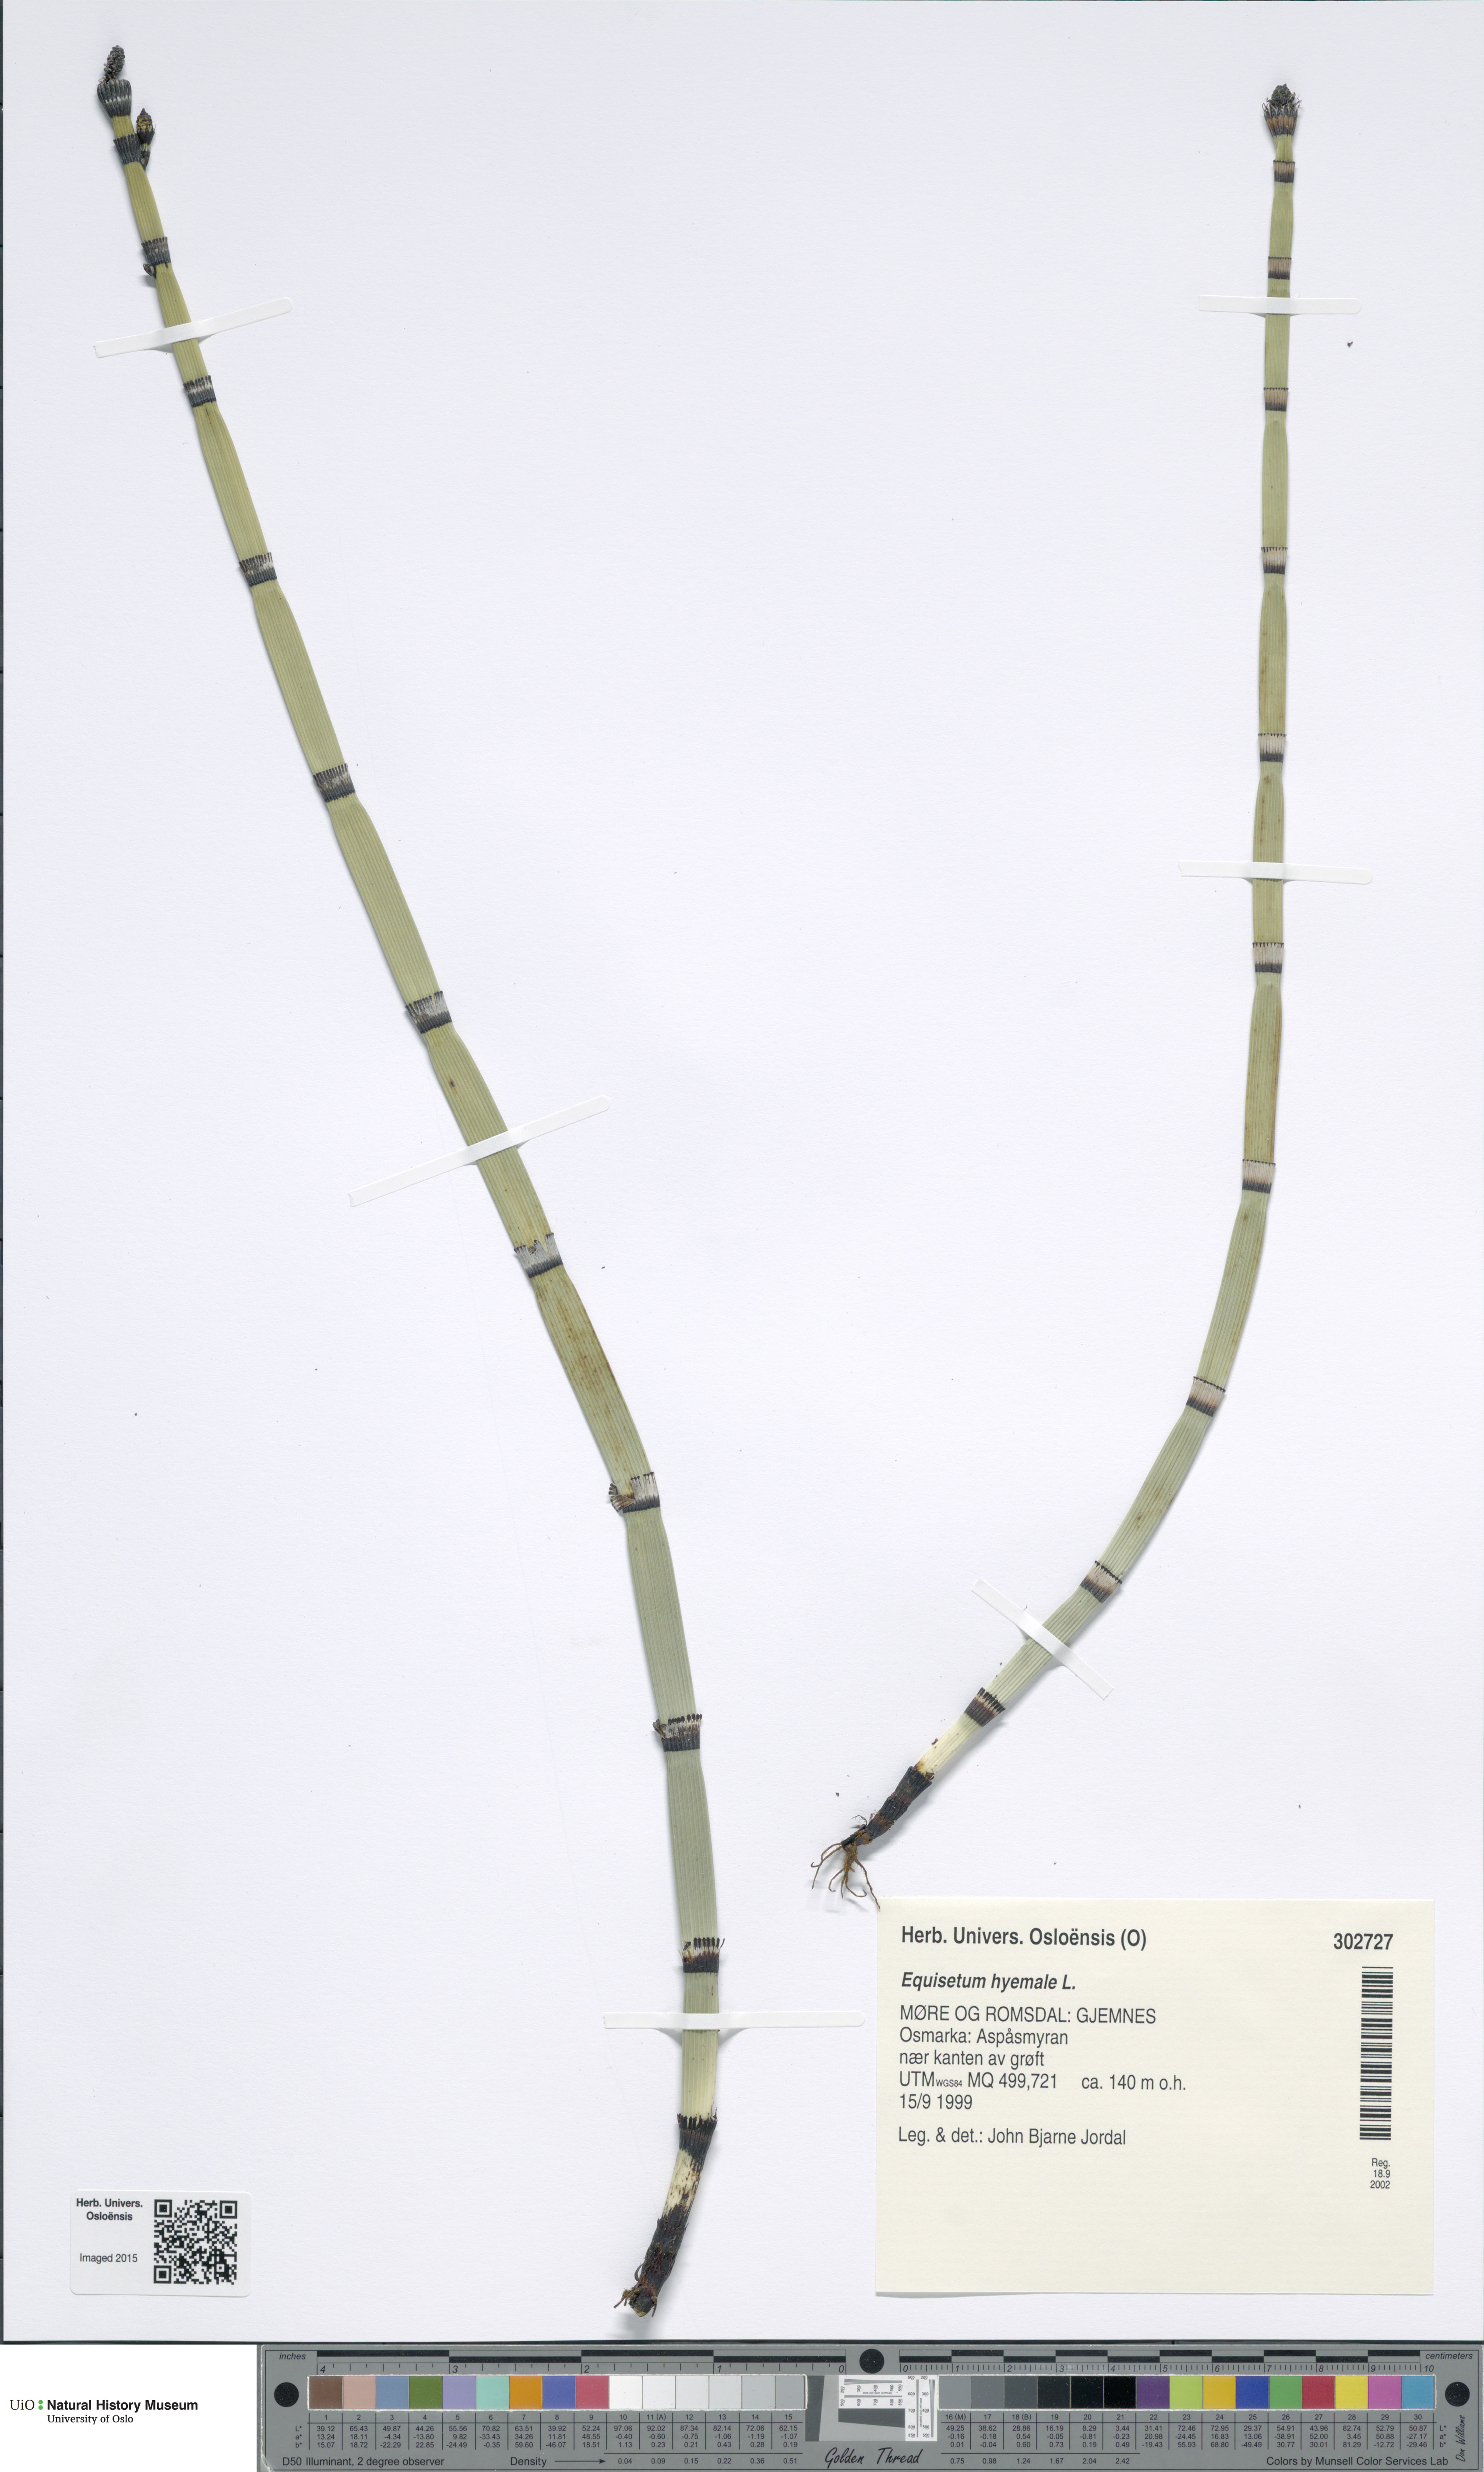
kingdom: Plantae
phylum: Tracheophyta
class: Polypodiopsida
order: Equisetales
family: Equisetaceae
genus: Equisetum
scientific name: Equisetum hyemale
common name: Rough horsetail
